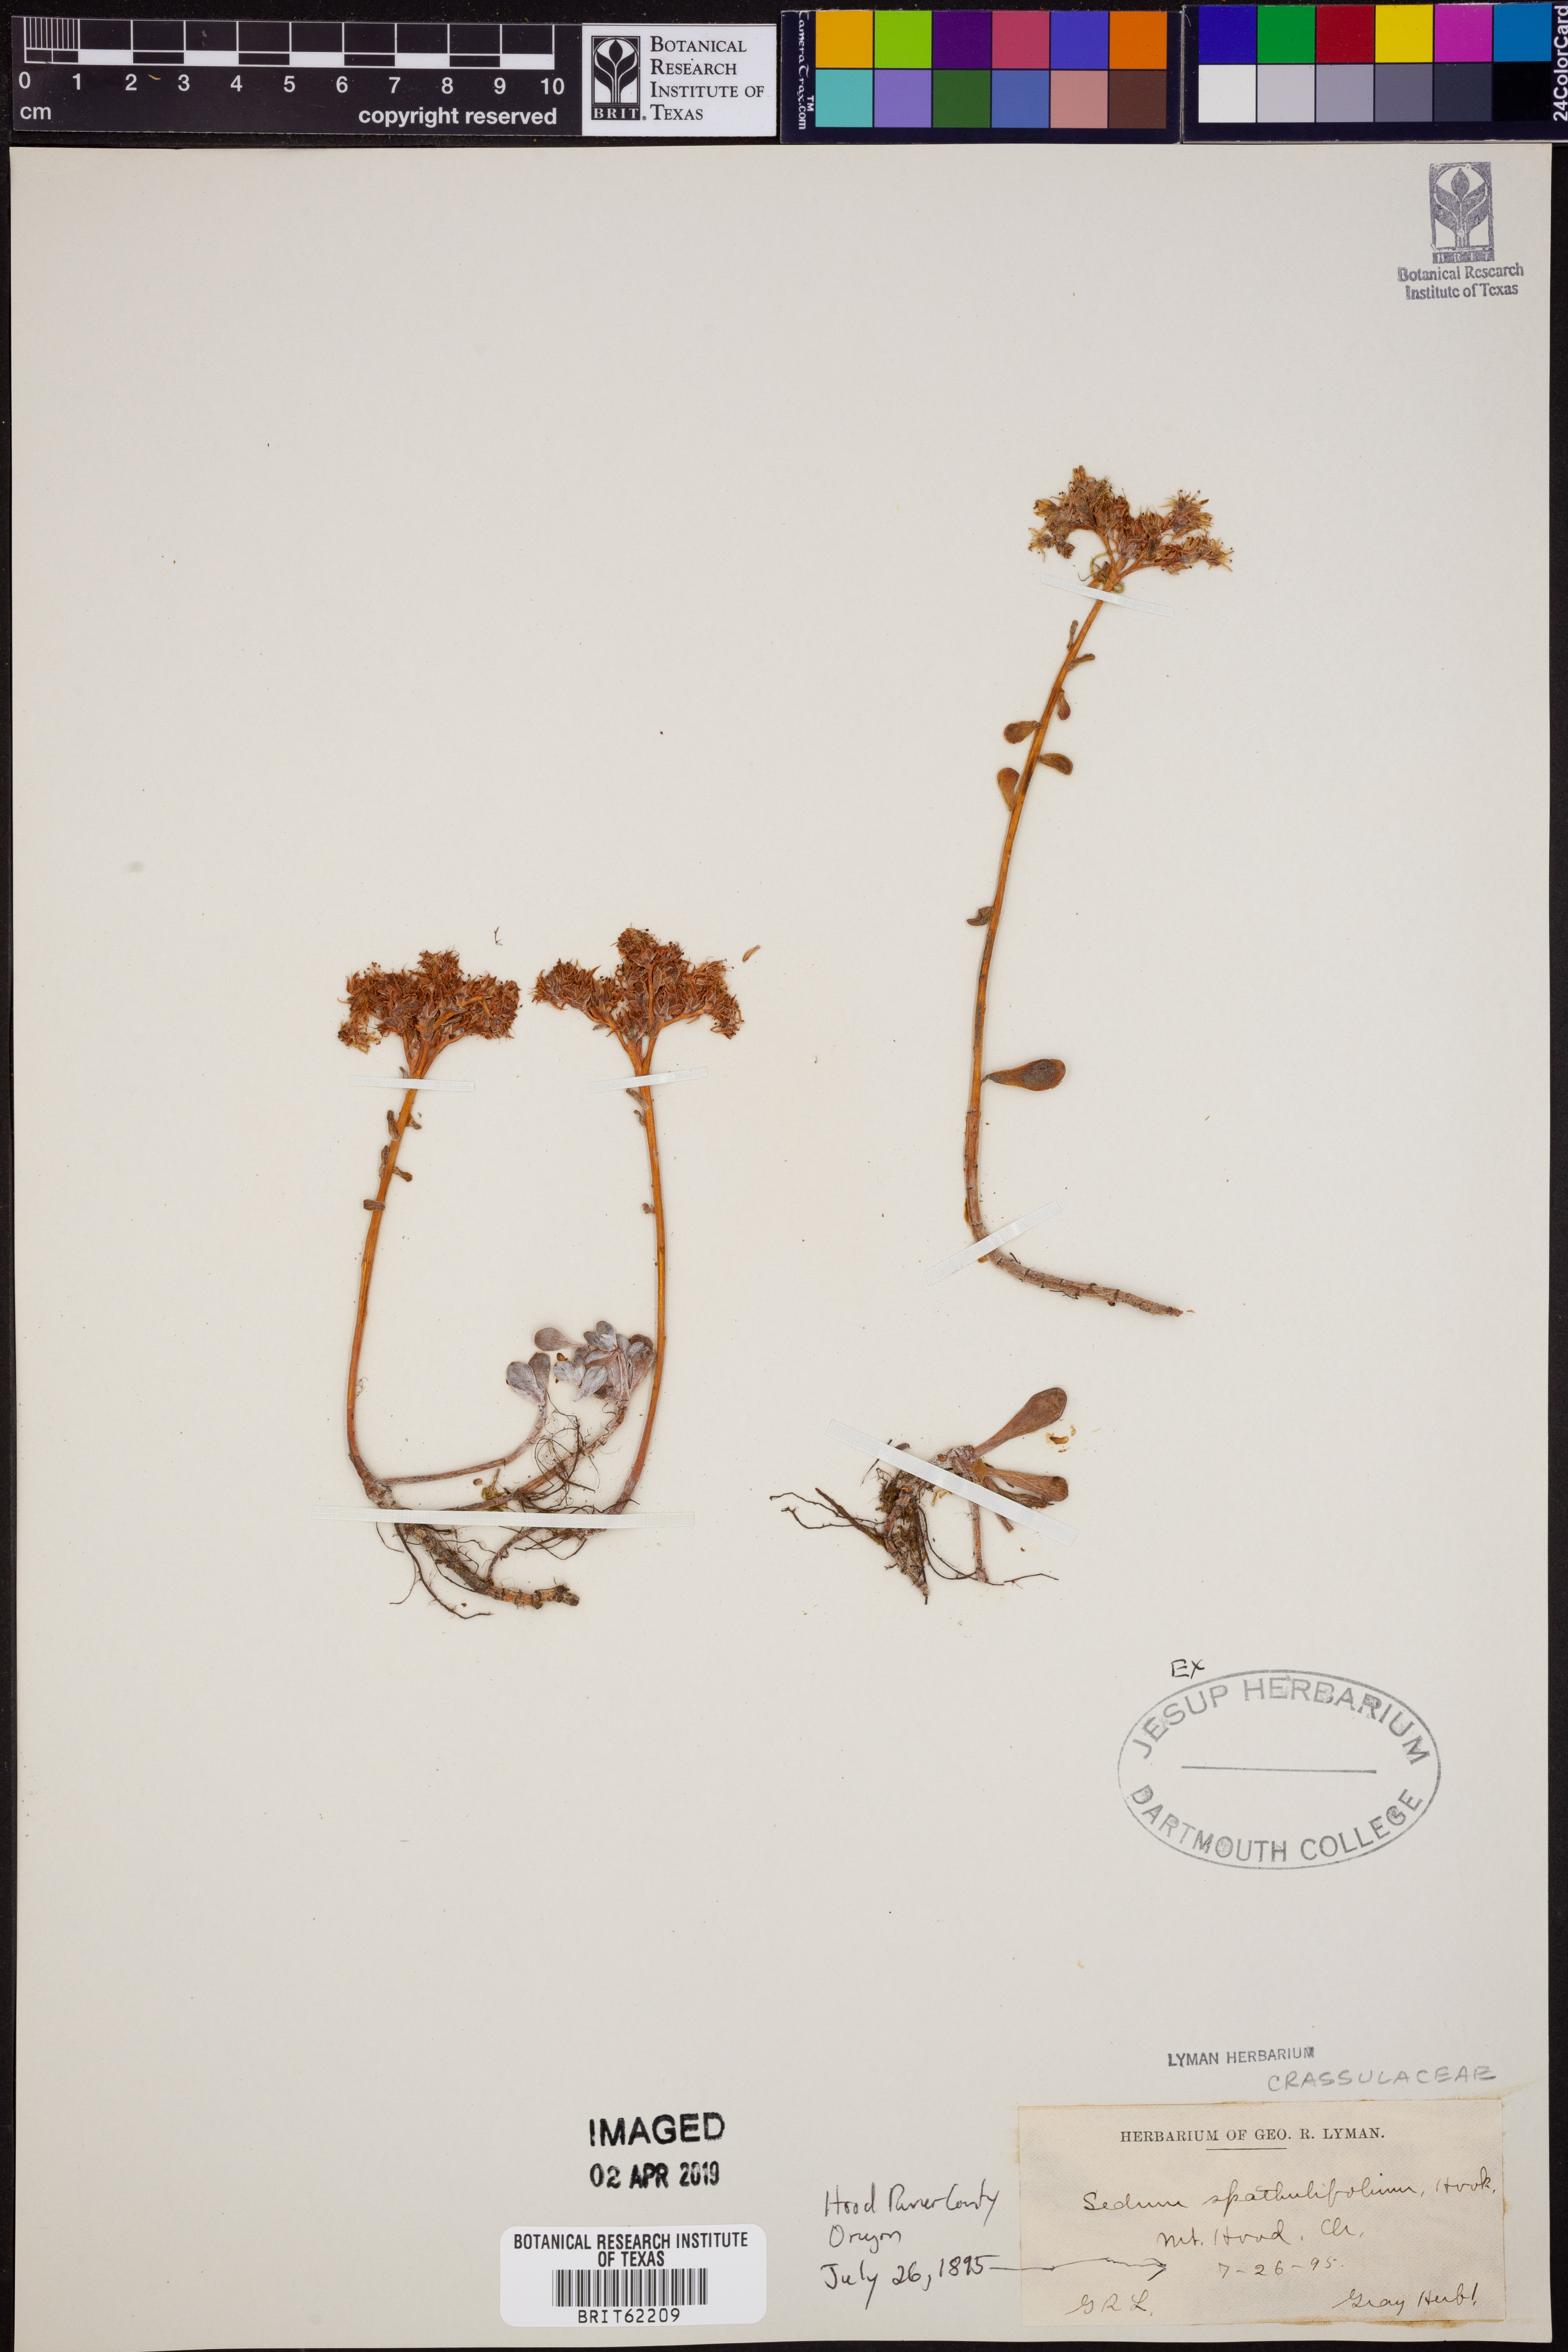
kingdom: Plantae
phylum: Tracheophyta
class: Magnoliopsida
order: Saxifragales
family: Crassulaceae
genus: Sedum
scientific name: Sedum spathulifolium
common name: Colorado stonecrop
